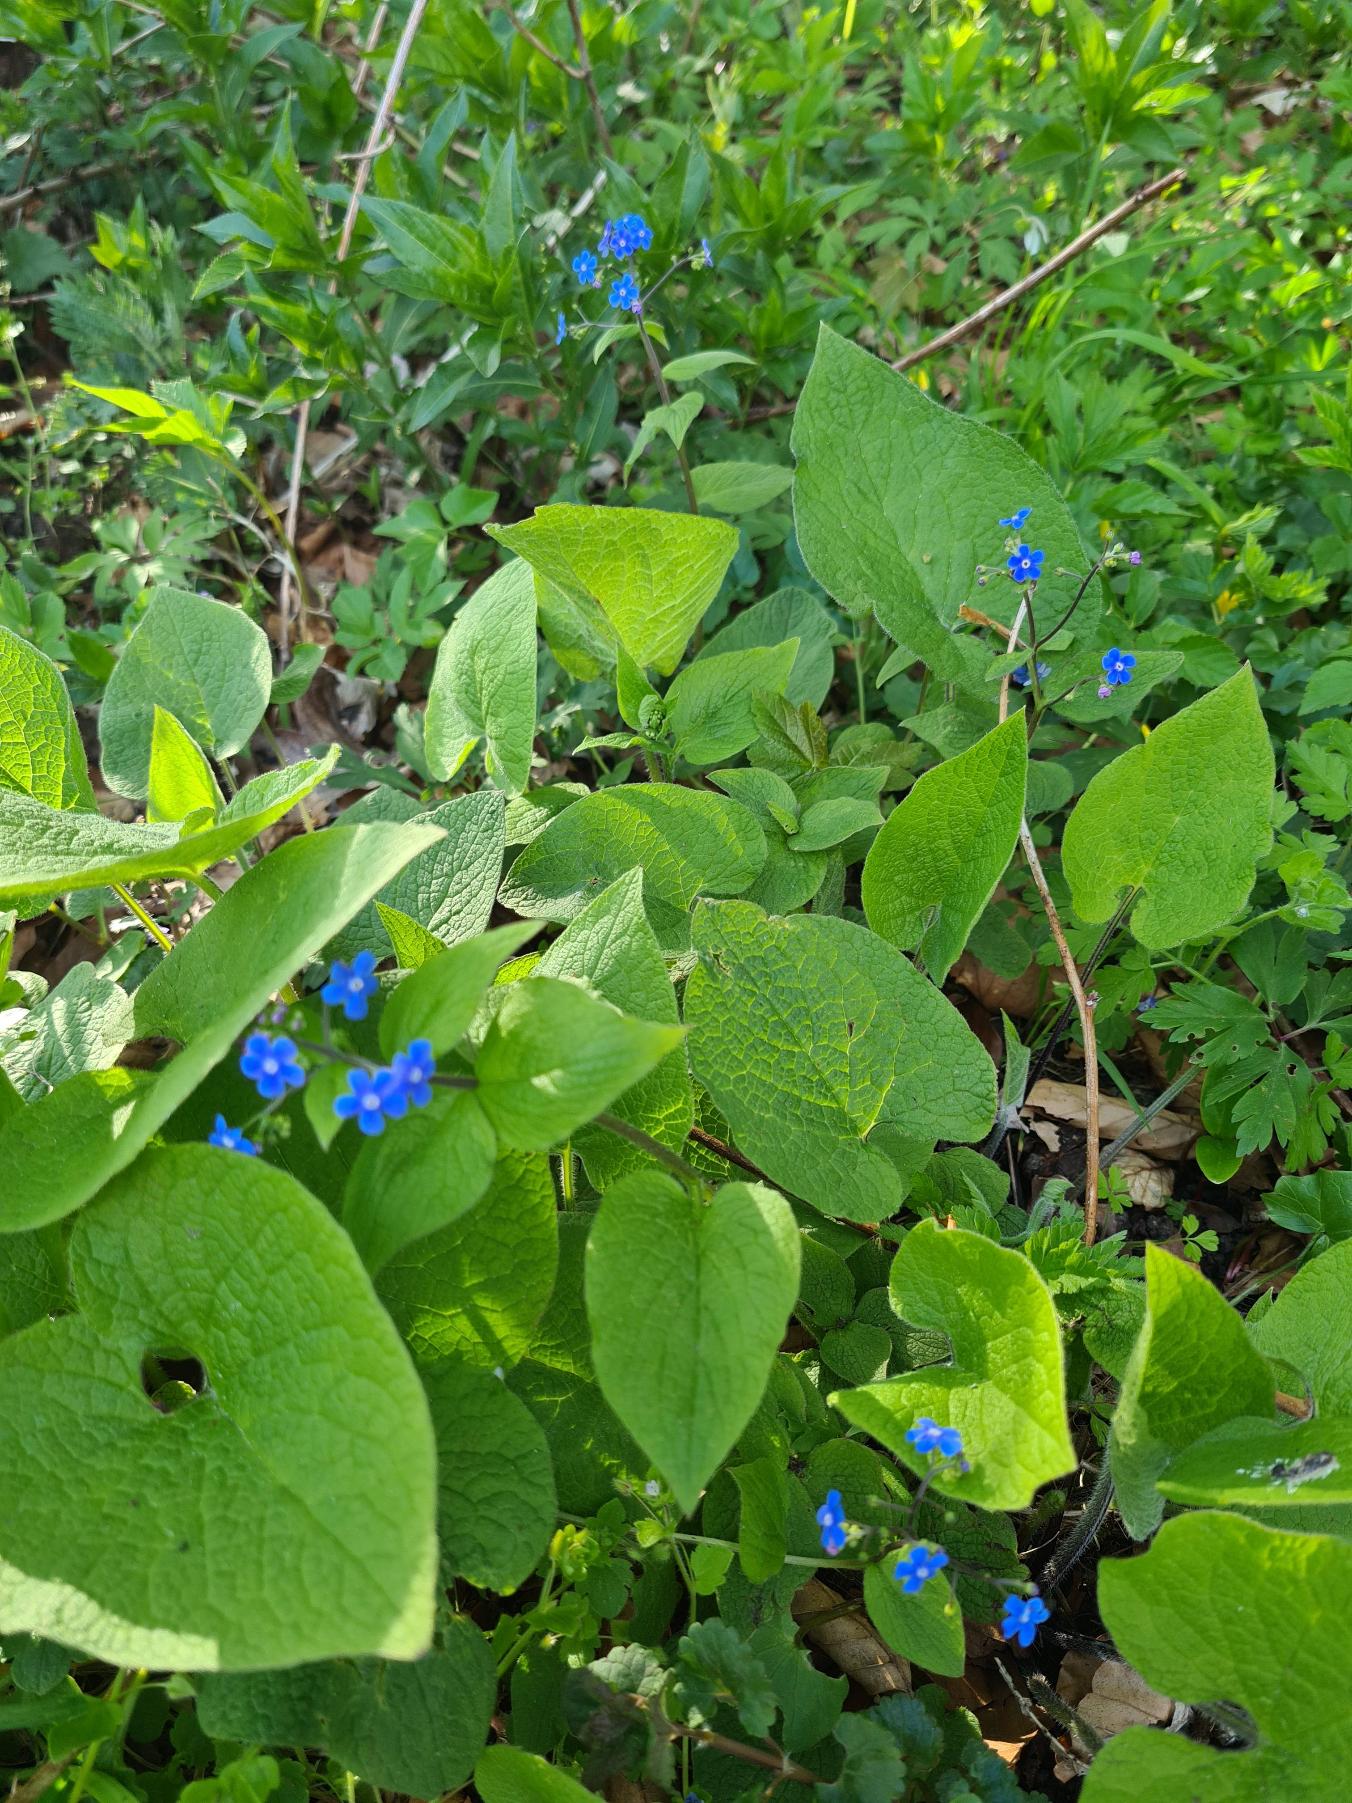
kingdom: Plantae
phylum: Tracheophyta
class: Magnoliopsida
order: Boraginales
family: Boraginaceae
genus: Brunnera
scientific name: Brunnera macrophylla
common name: Kærmindesøster
